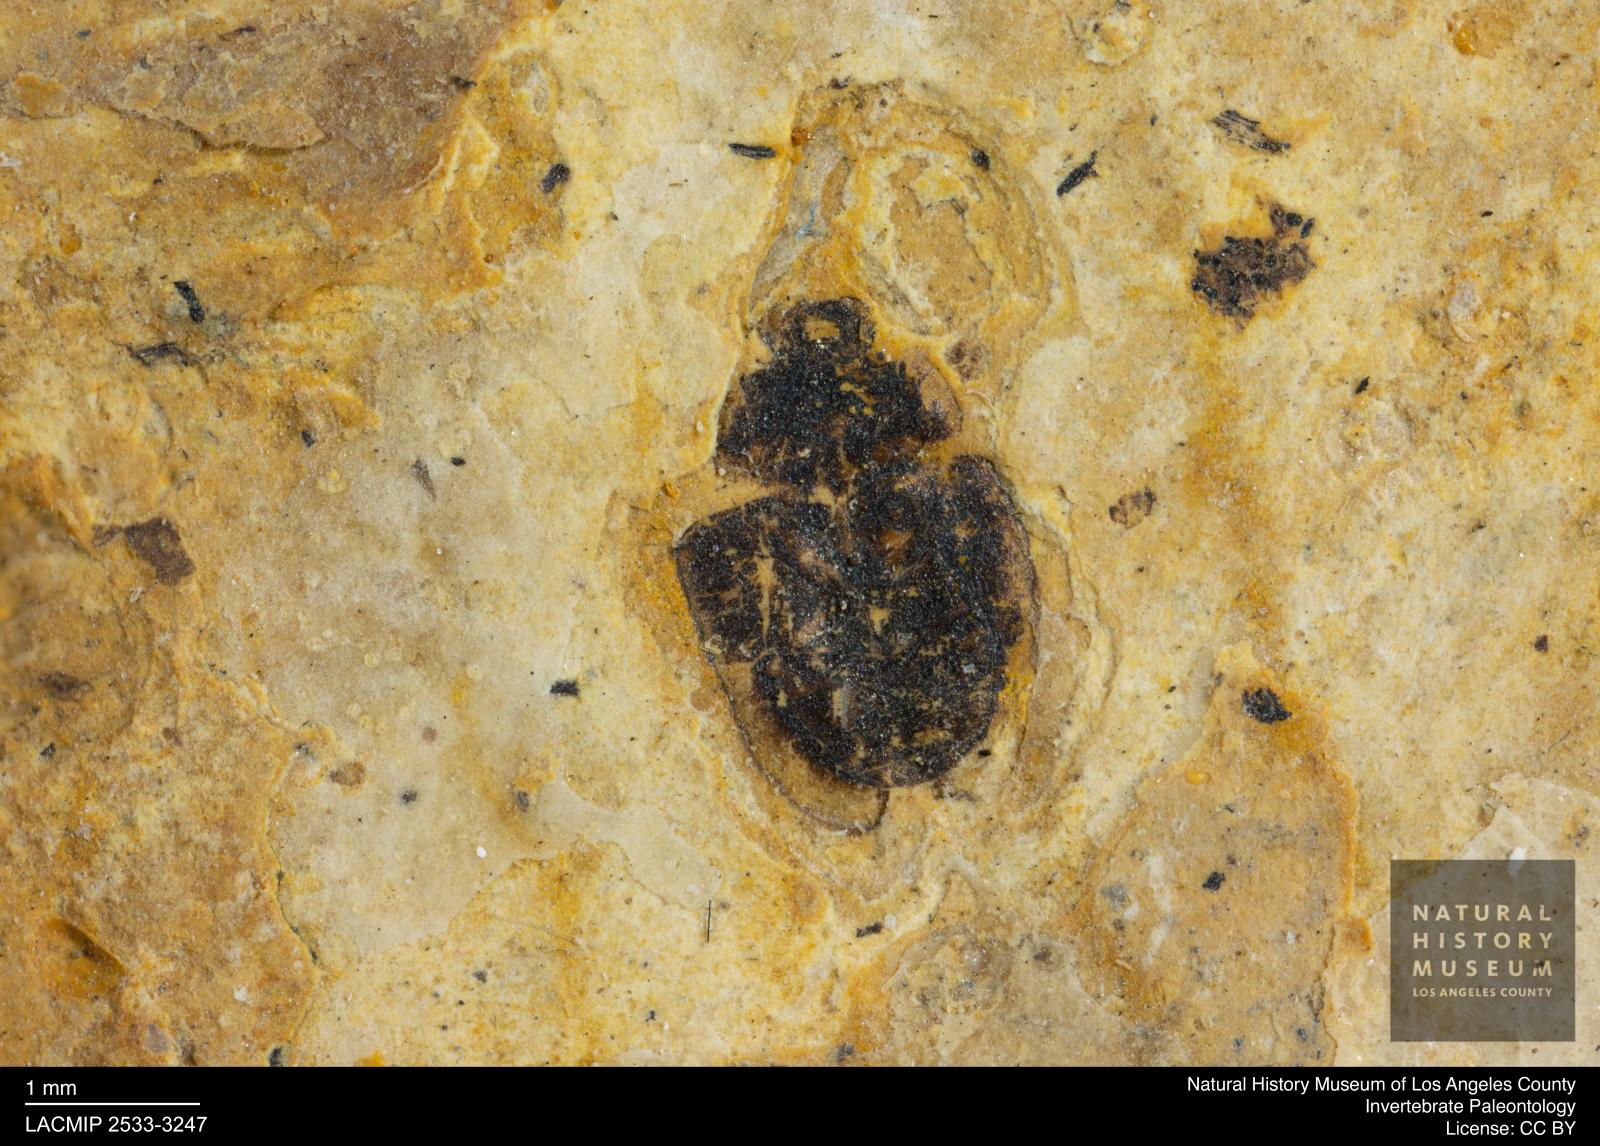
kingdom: Animalia
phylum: Arthropoda
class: Insecta
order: Coleoptera
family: Hydrophilidae
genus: Paracymus
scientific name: Paracymus excitatus
